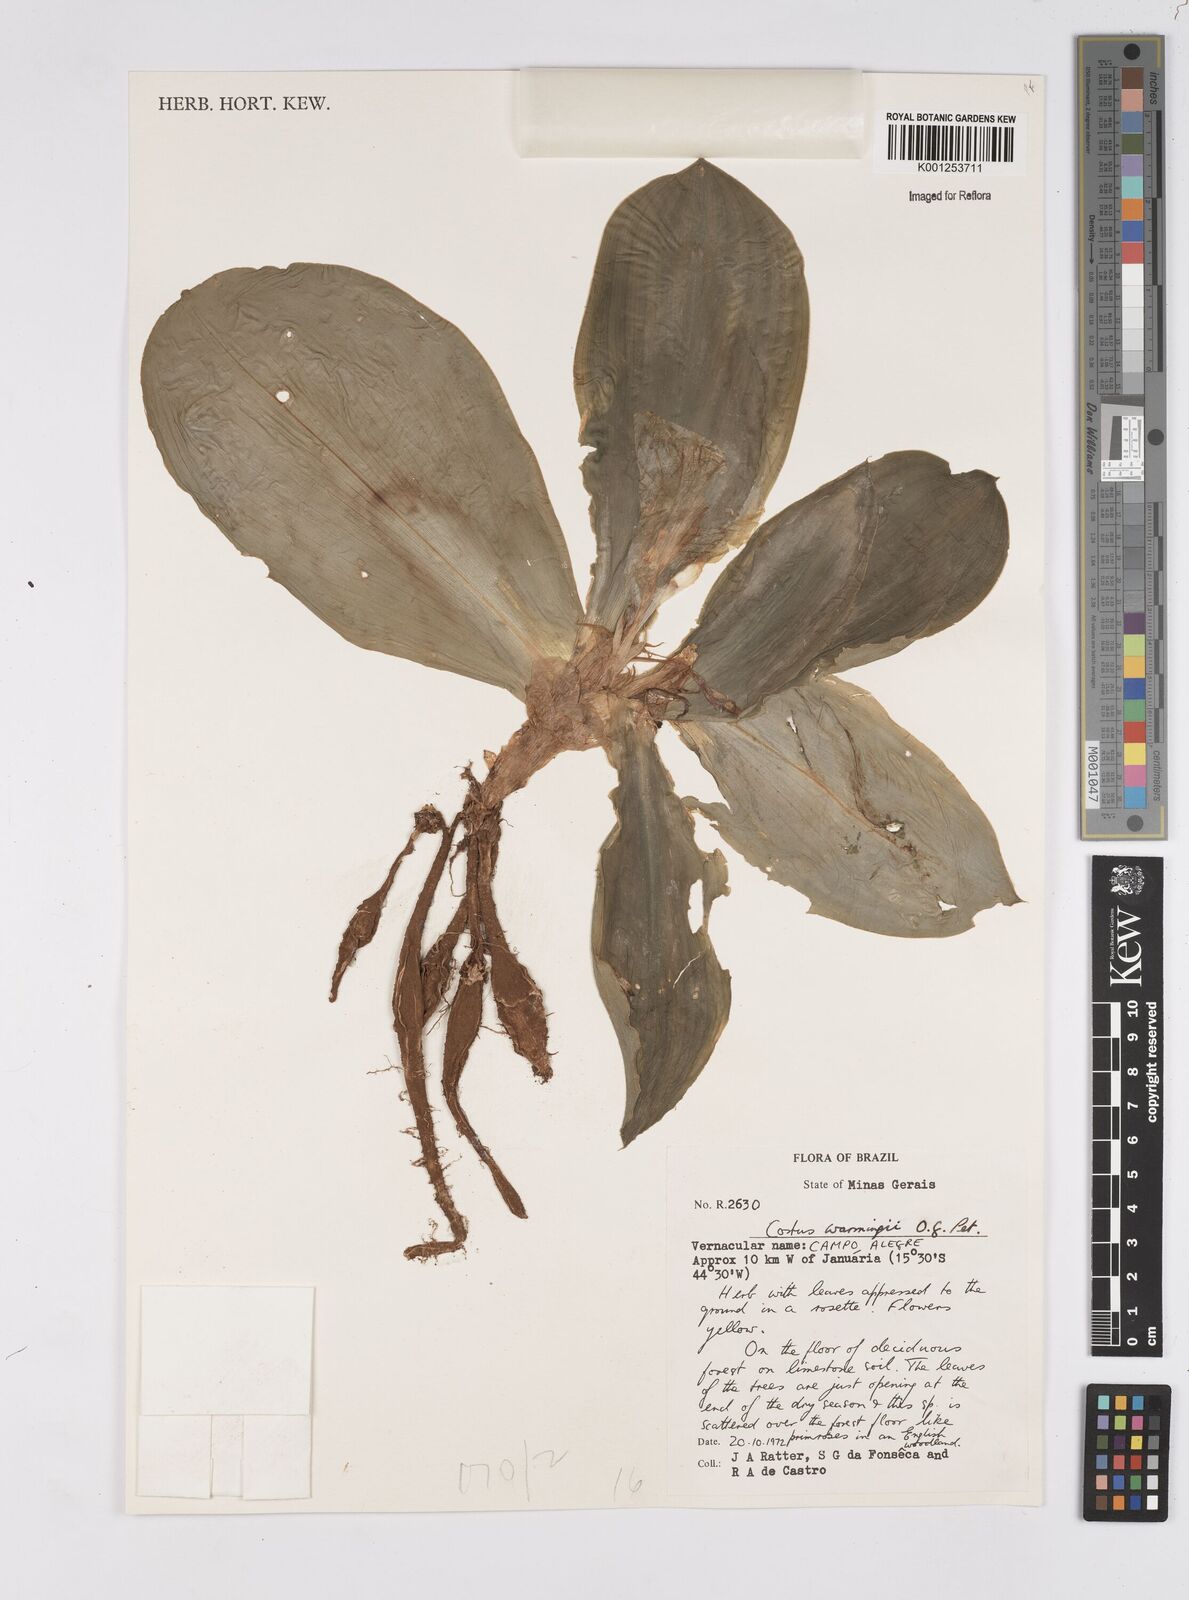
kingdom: Plantae
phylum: Tracheophyta
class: Liliopsida
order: Zingiberales
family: Costaceae
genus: Chamaecostus
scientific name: Chamaecostus subsessilis
